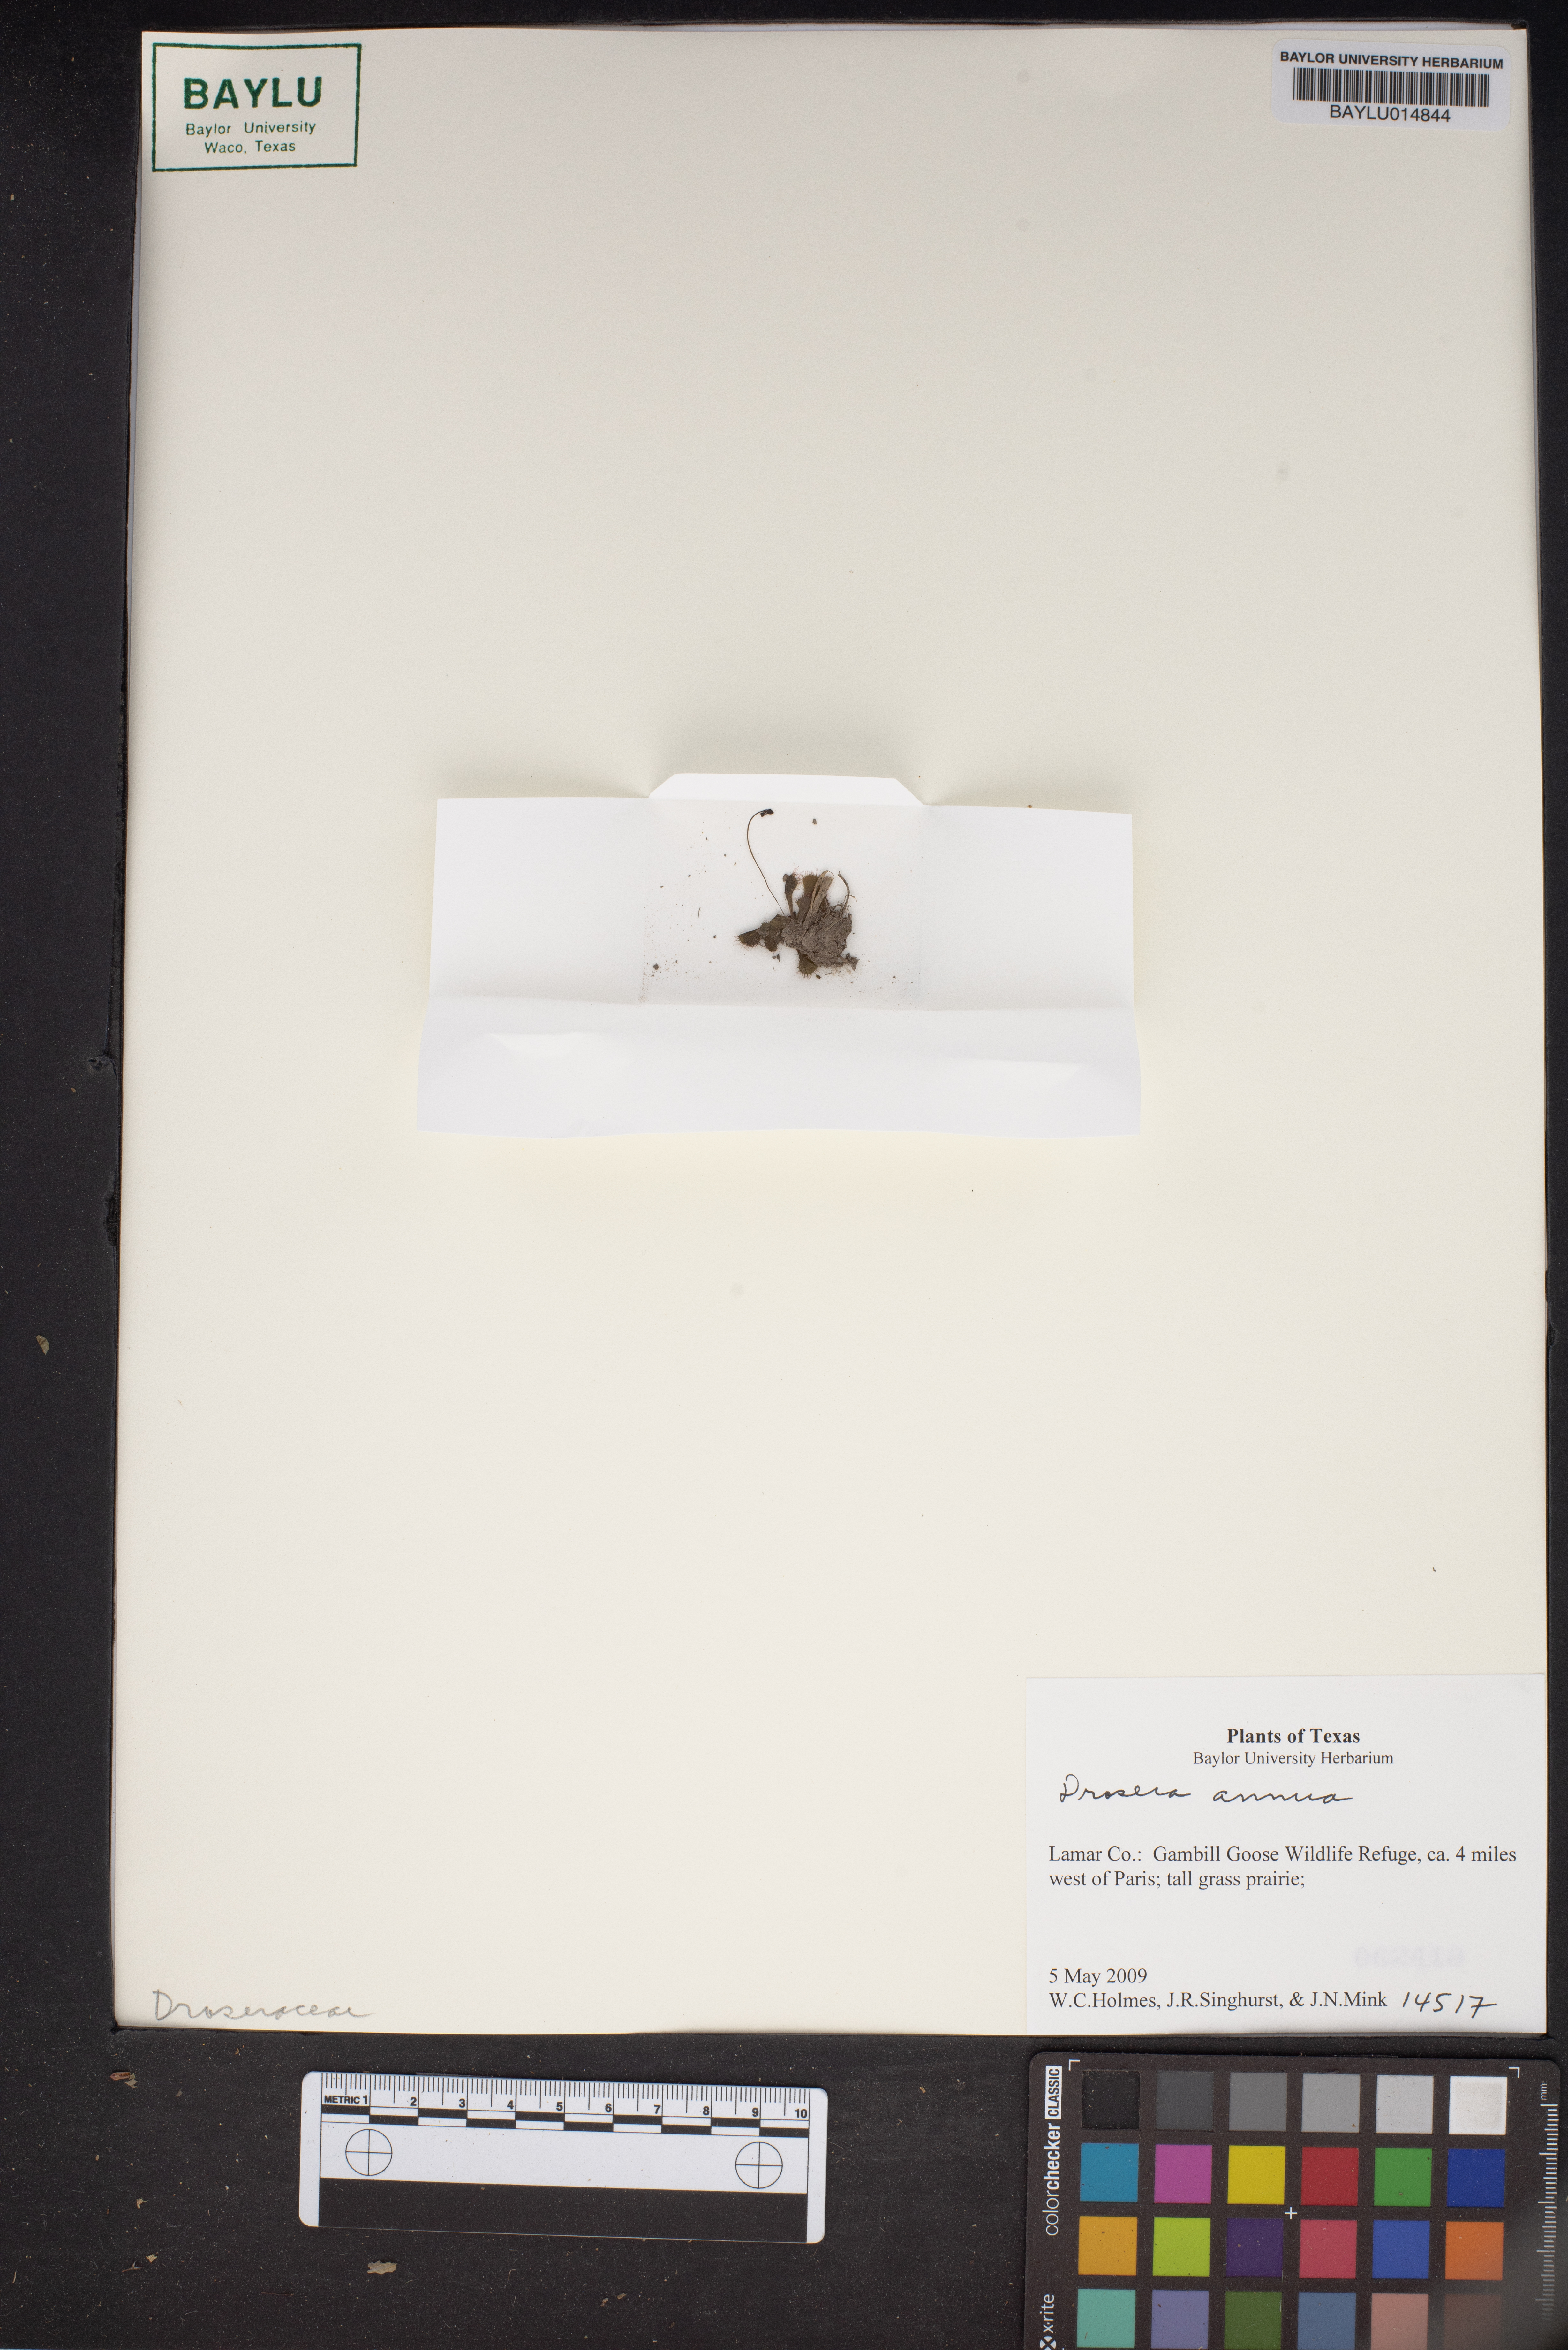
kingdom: Plantae
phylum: Tracheophyta
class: Magnoliopsida
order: Caryophyllales
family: Droseraceae
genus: Drosera
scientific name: Drosera brevifolia
